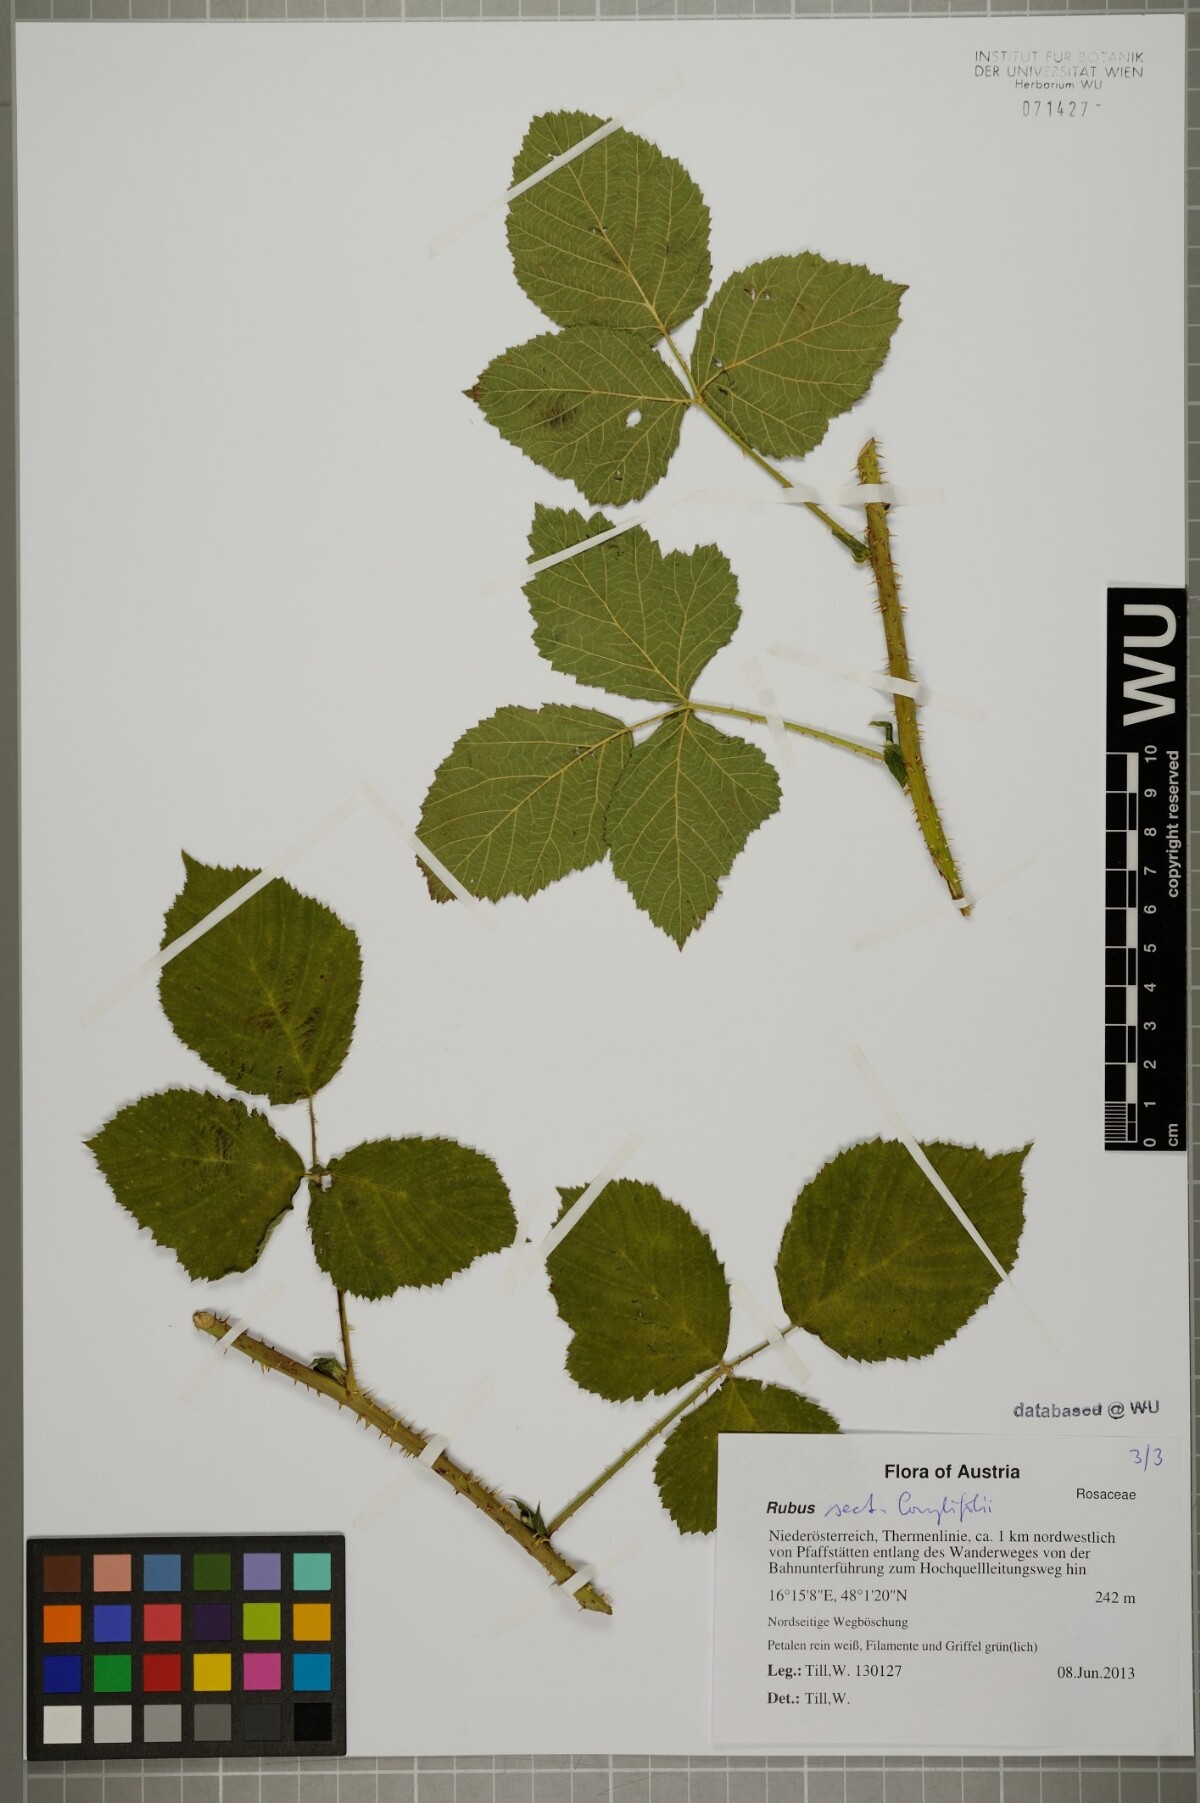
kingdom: Plantae
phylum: Tracheophyta
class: Magnoliopsida
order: Rosales
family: Rosaceae
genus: Rubus
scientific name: Rubus
